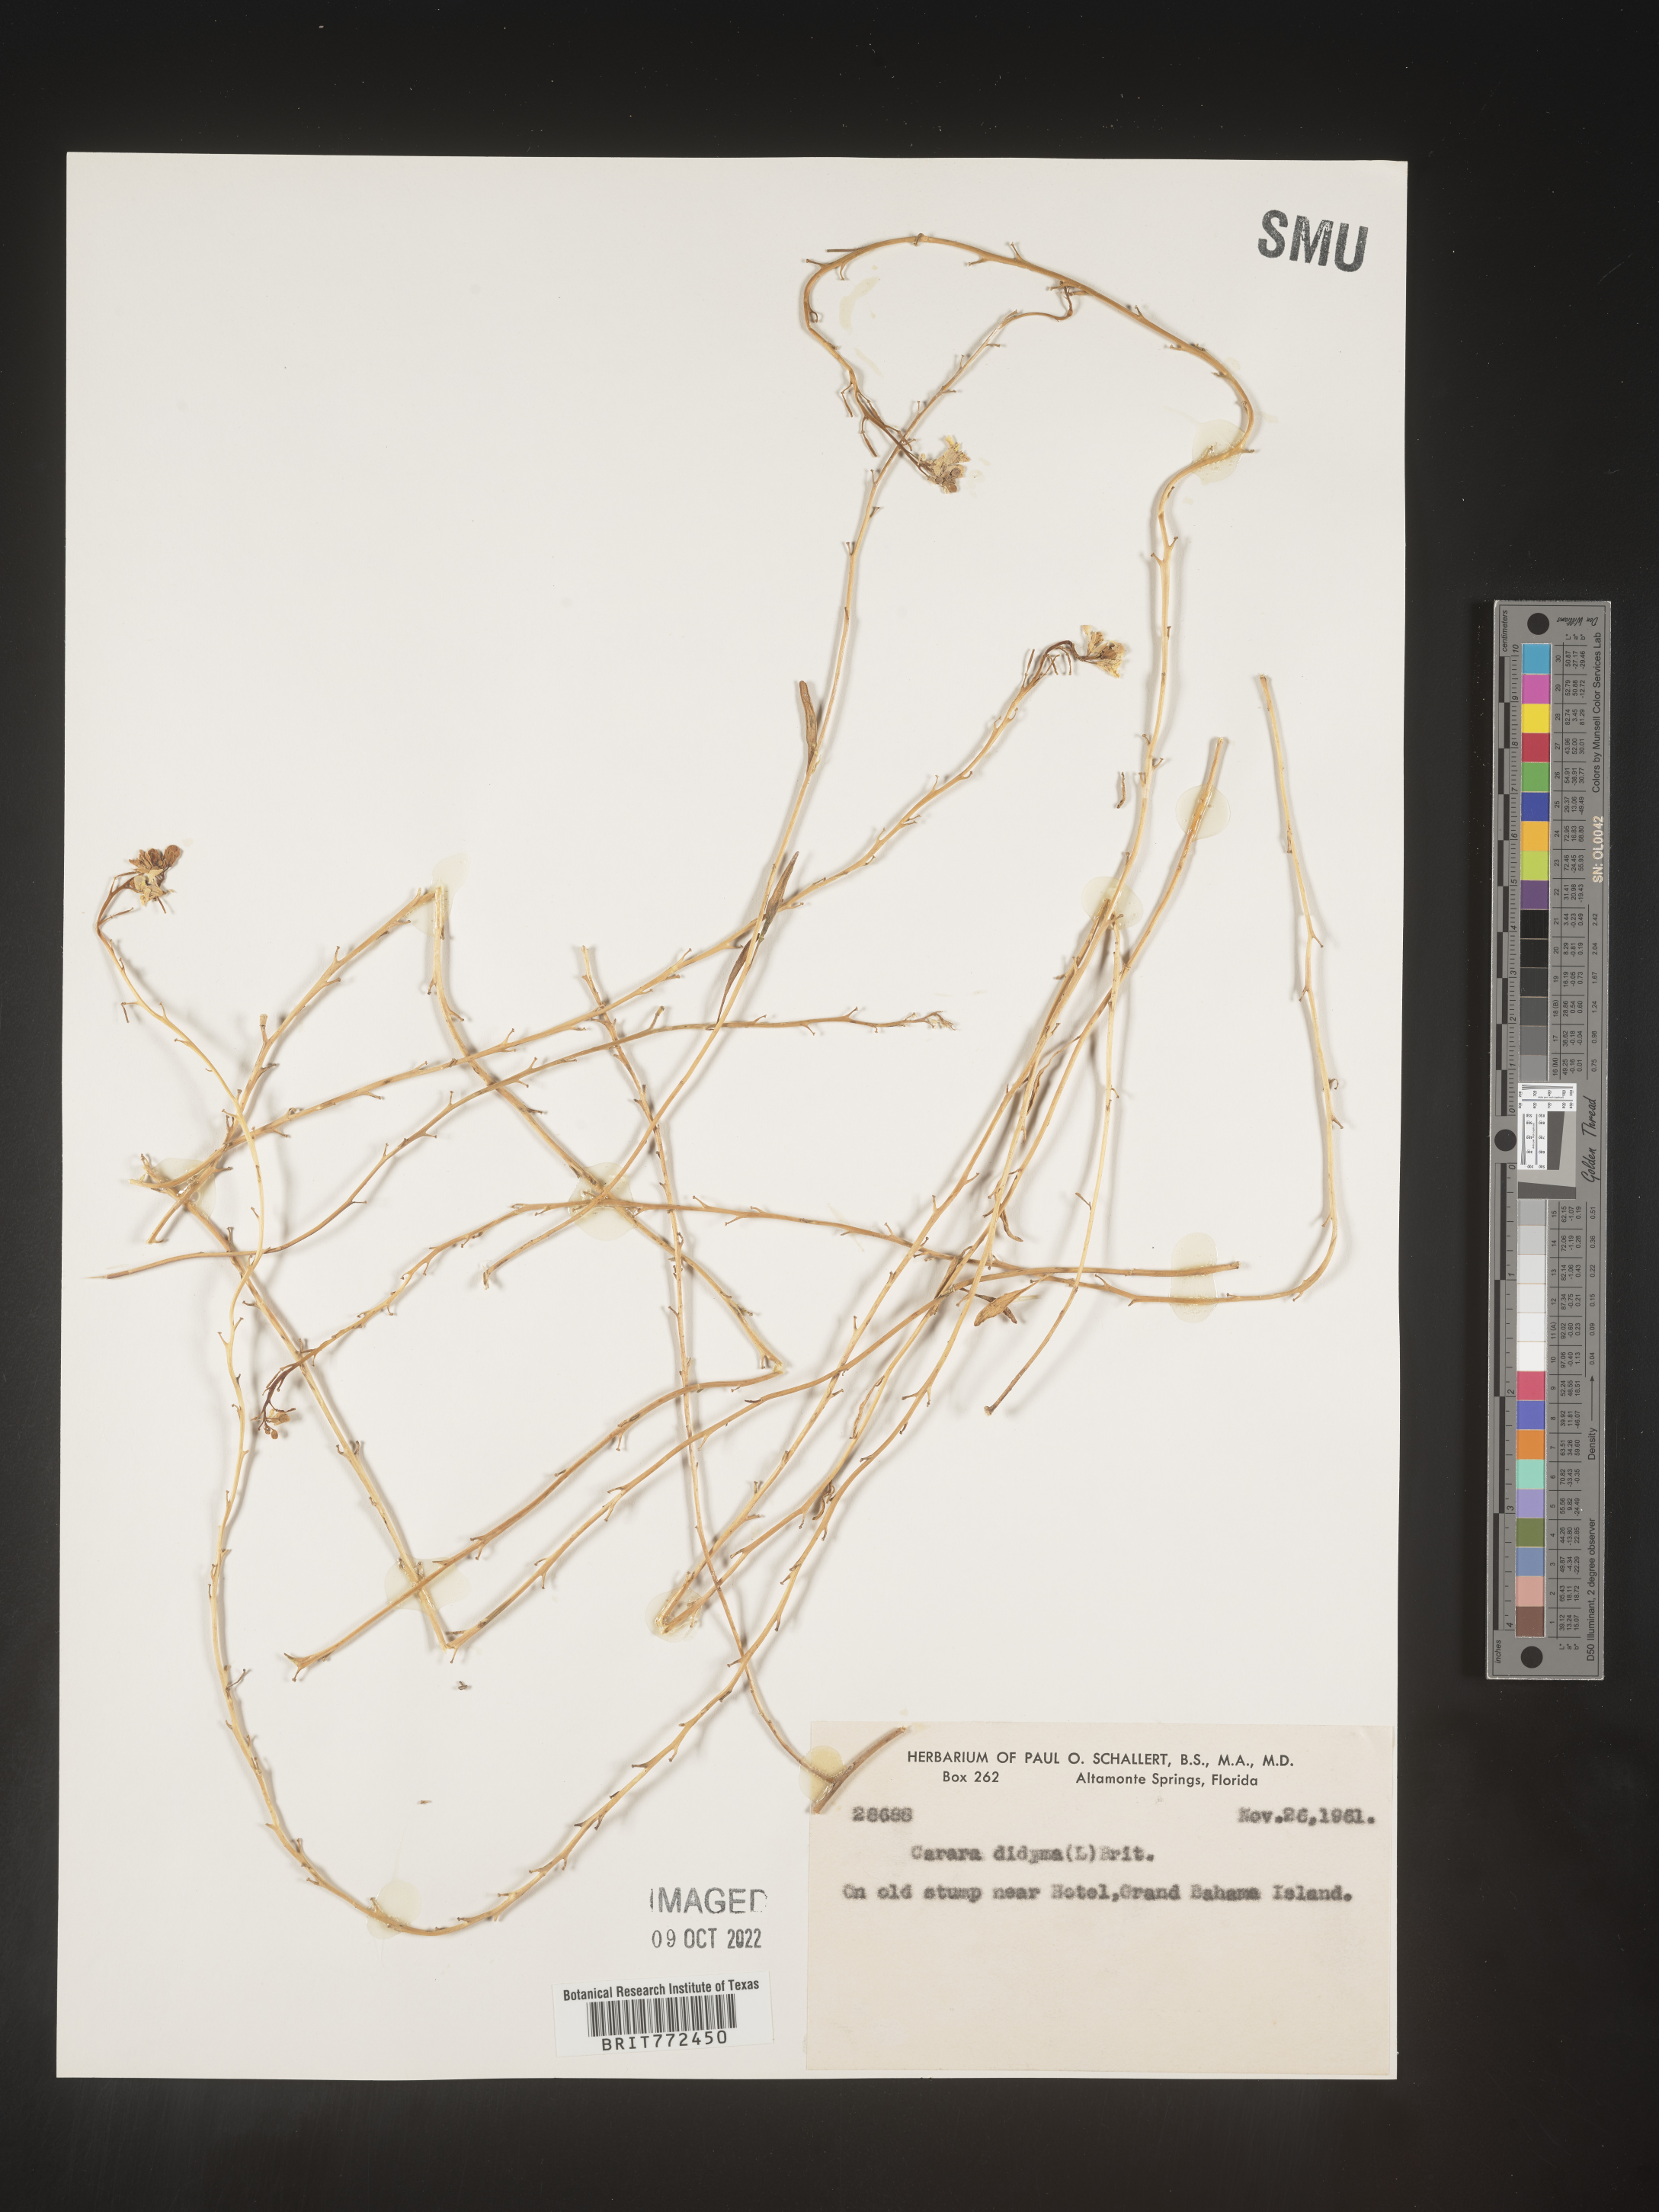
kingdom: Plantae
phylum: Tracheophyta
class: Magnoliopsida
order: Brassicales
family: Brassicaceae
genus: Brassica
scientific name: Brassica
